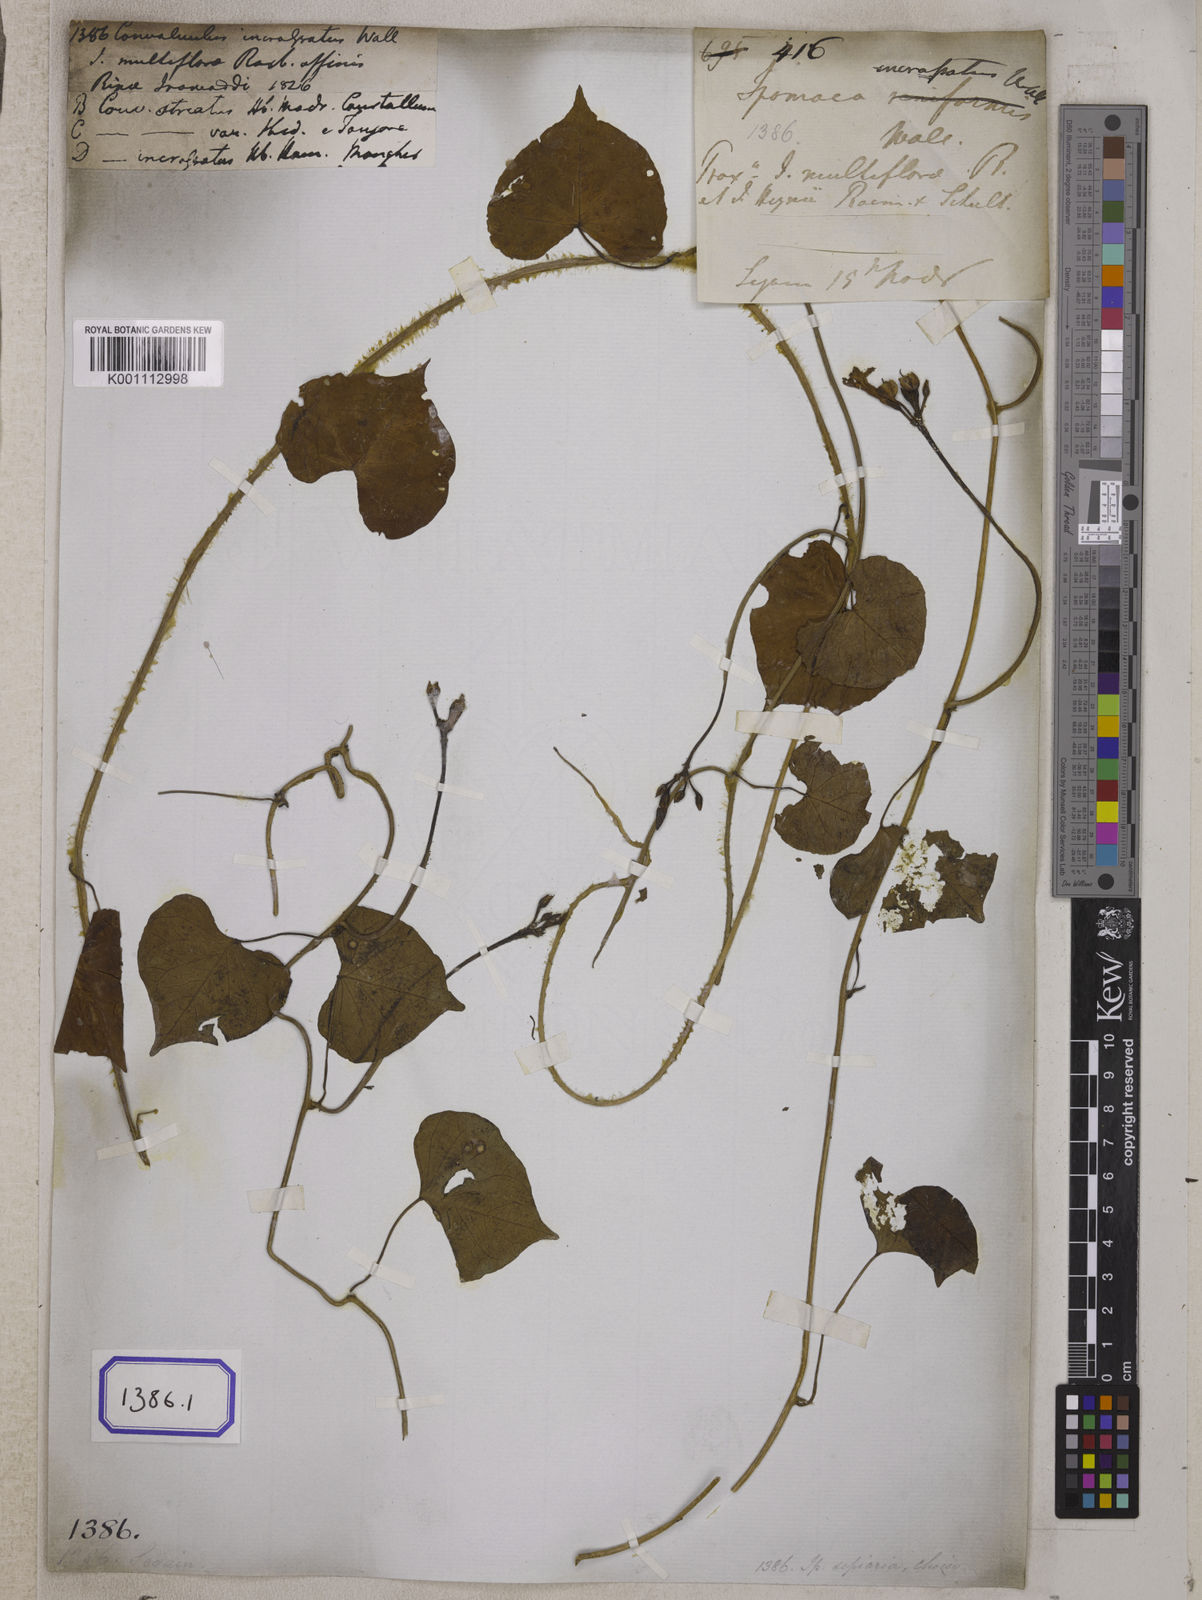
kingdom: Plantae
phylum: Tracheophyta
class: Magnoliopsida
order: Solanales
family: Convolvulaceae
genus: Convolvulus
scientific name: Convolvulus
